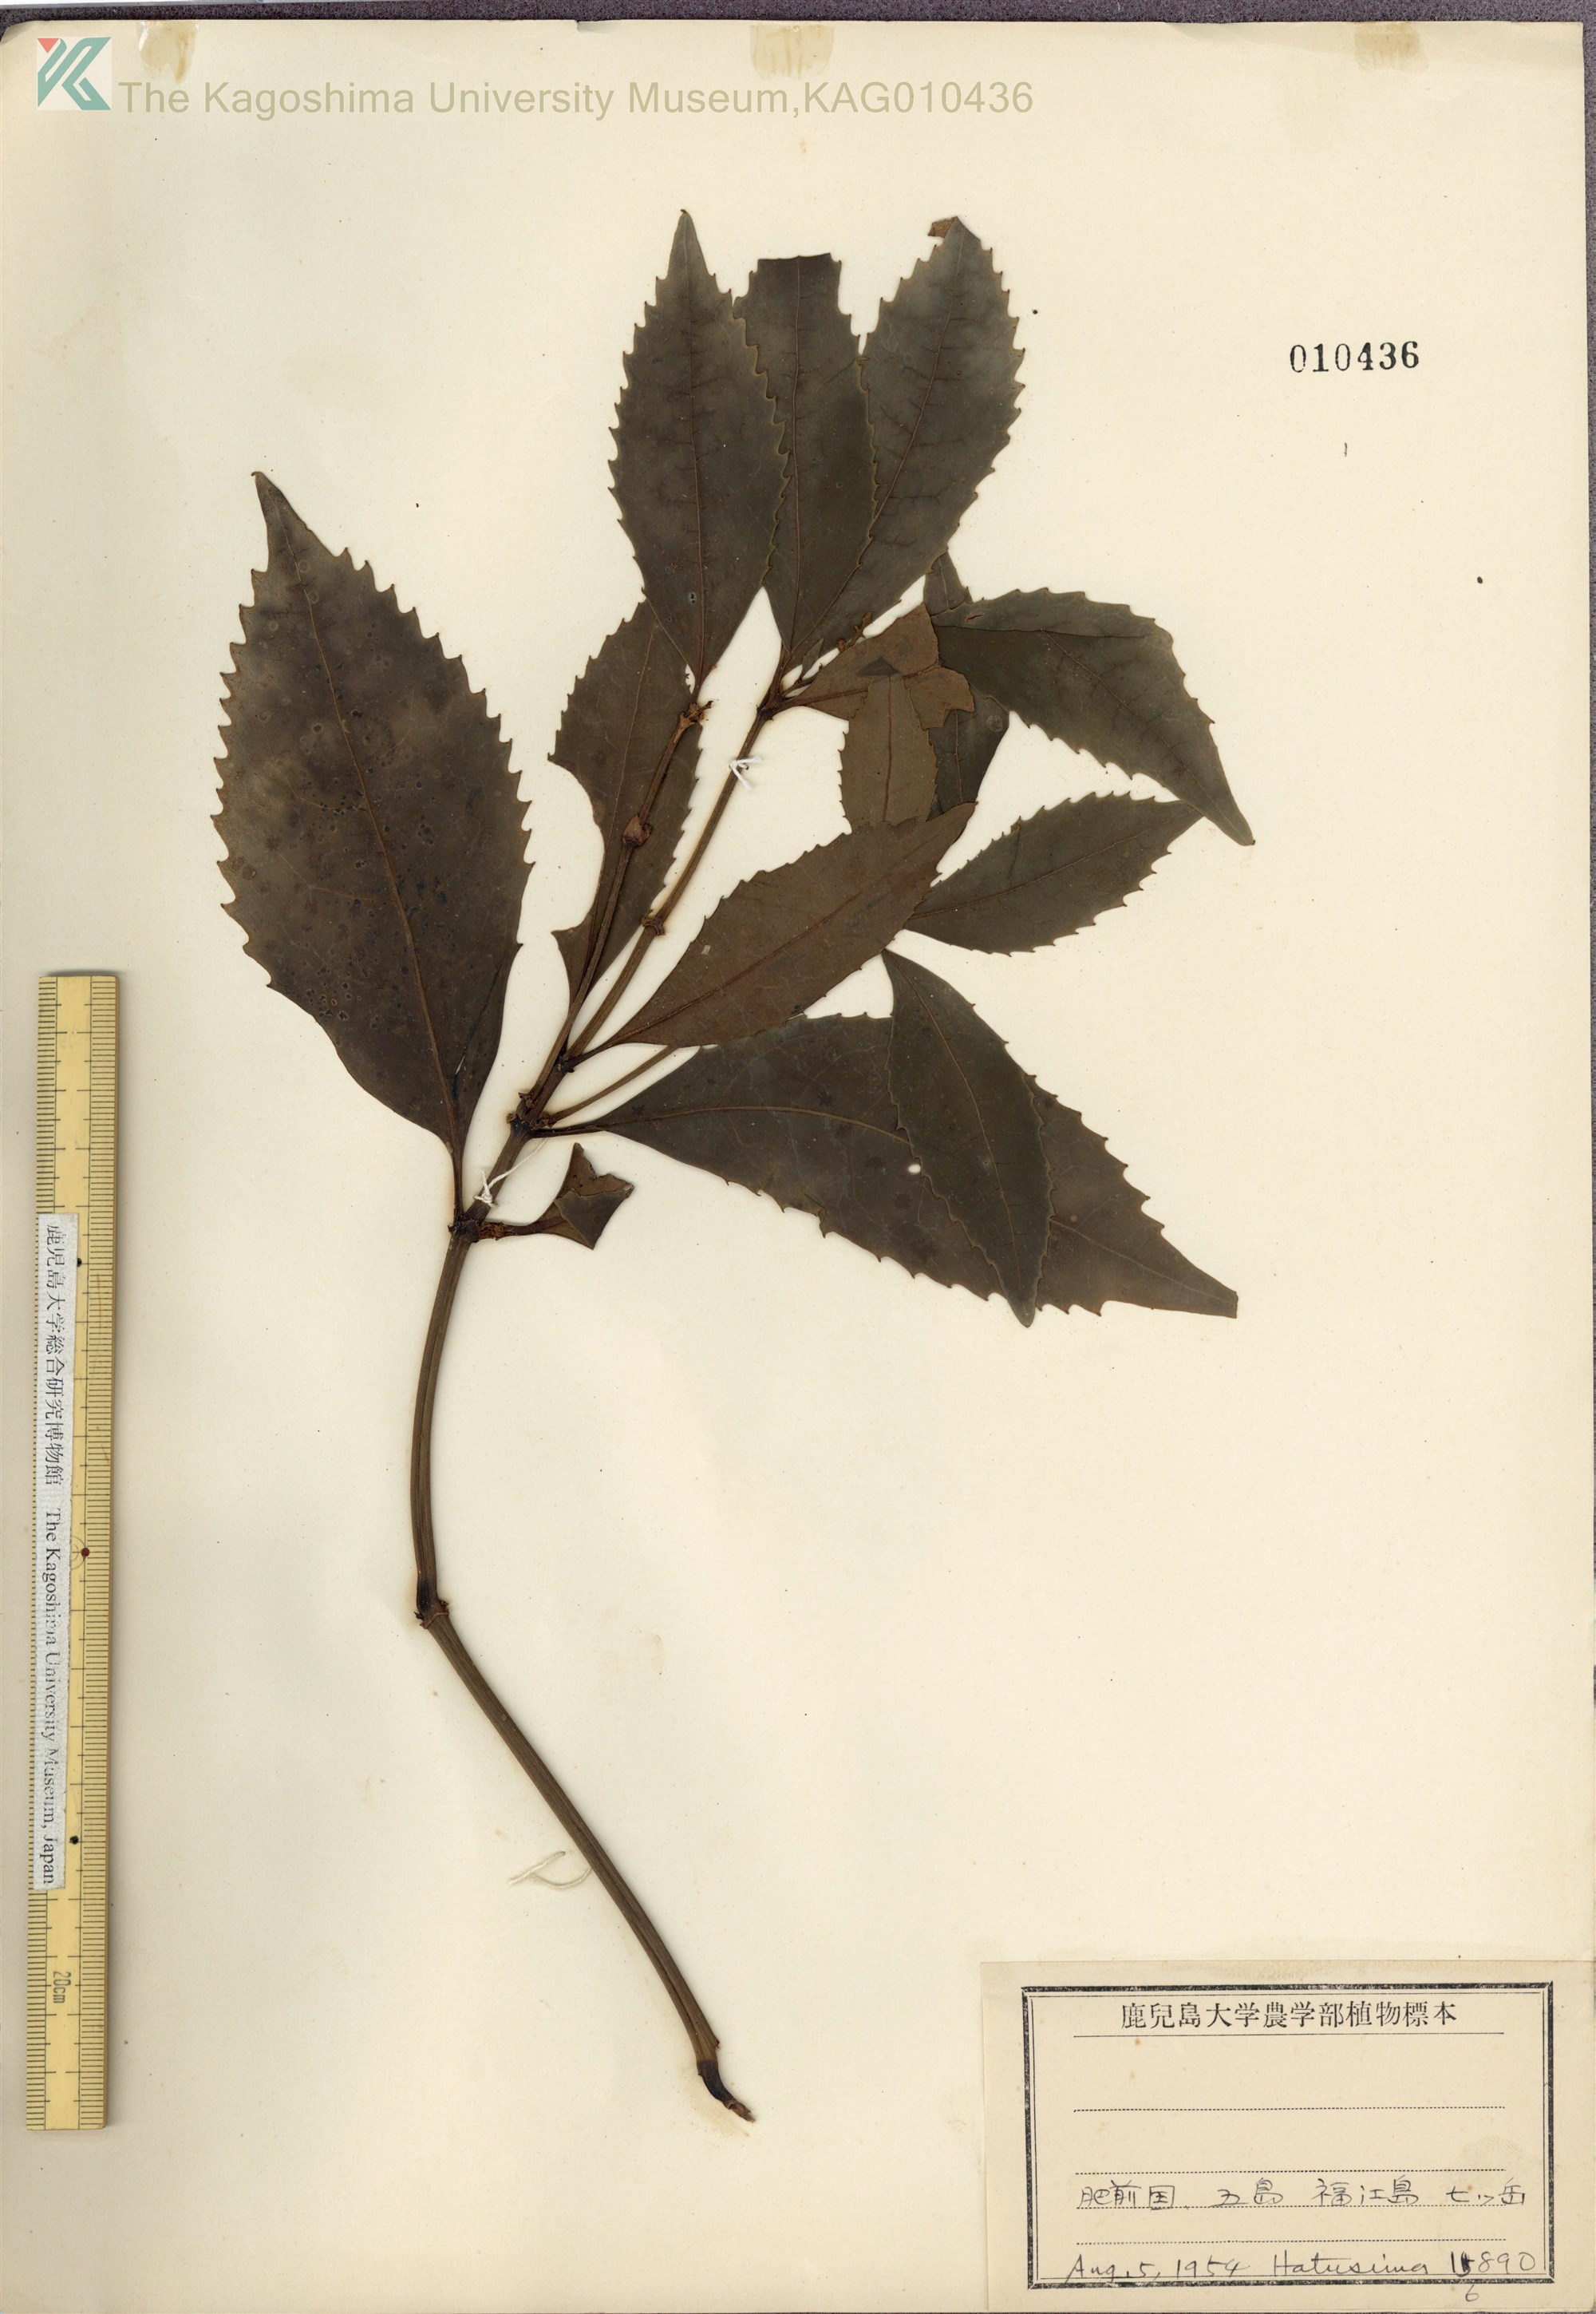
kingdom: Plantae
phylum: Tracheophyta
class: Magnoliopsida
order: Chloranthales
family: Chloranthaceae
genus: Sarcandra
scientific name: Sarcandra glabra
